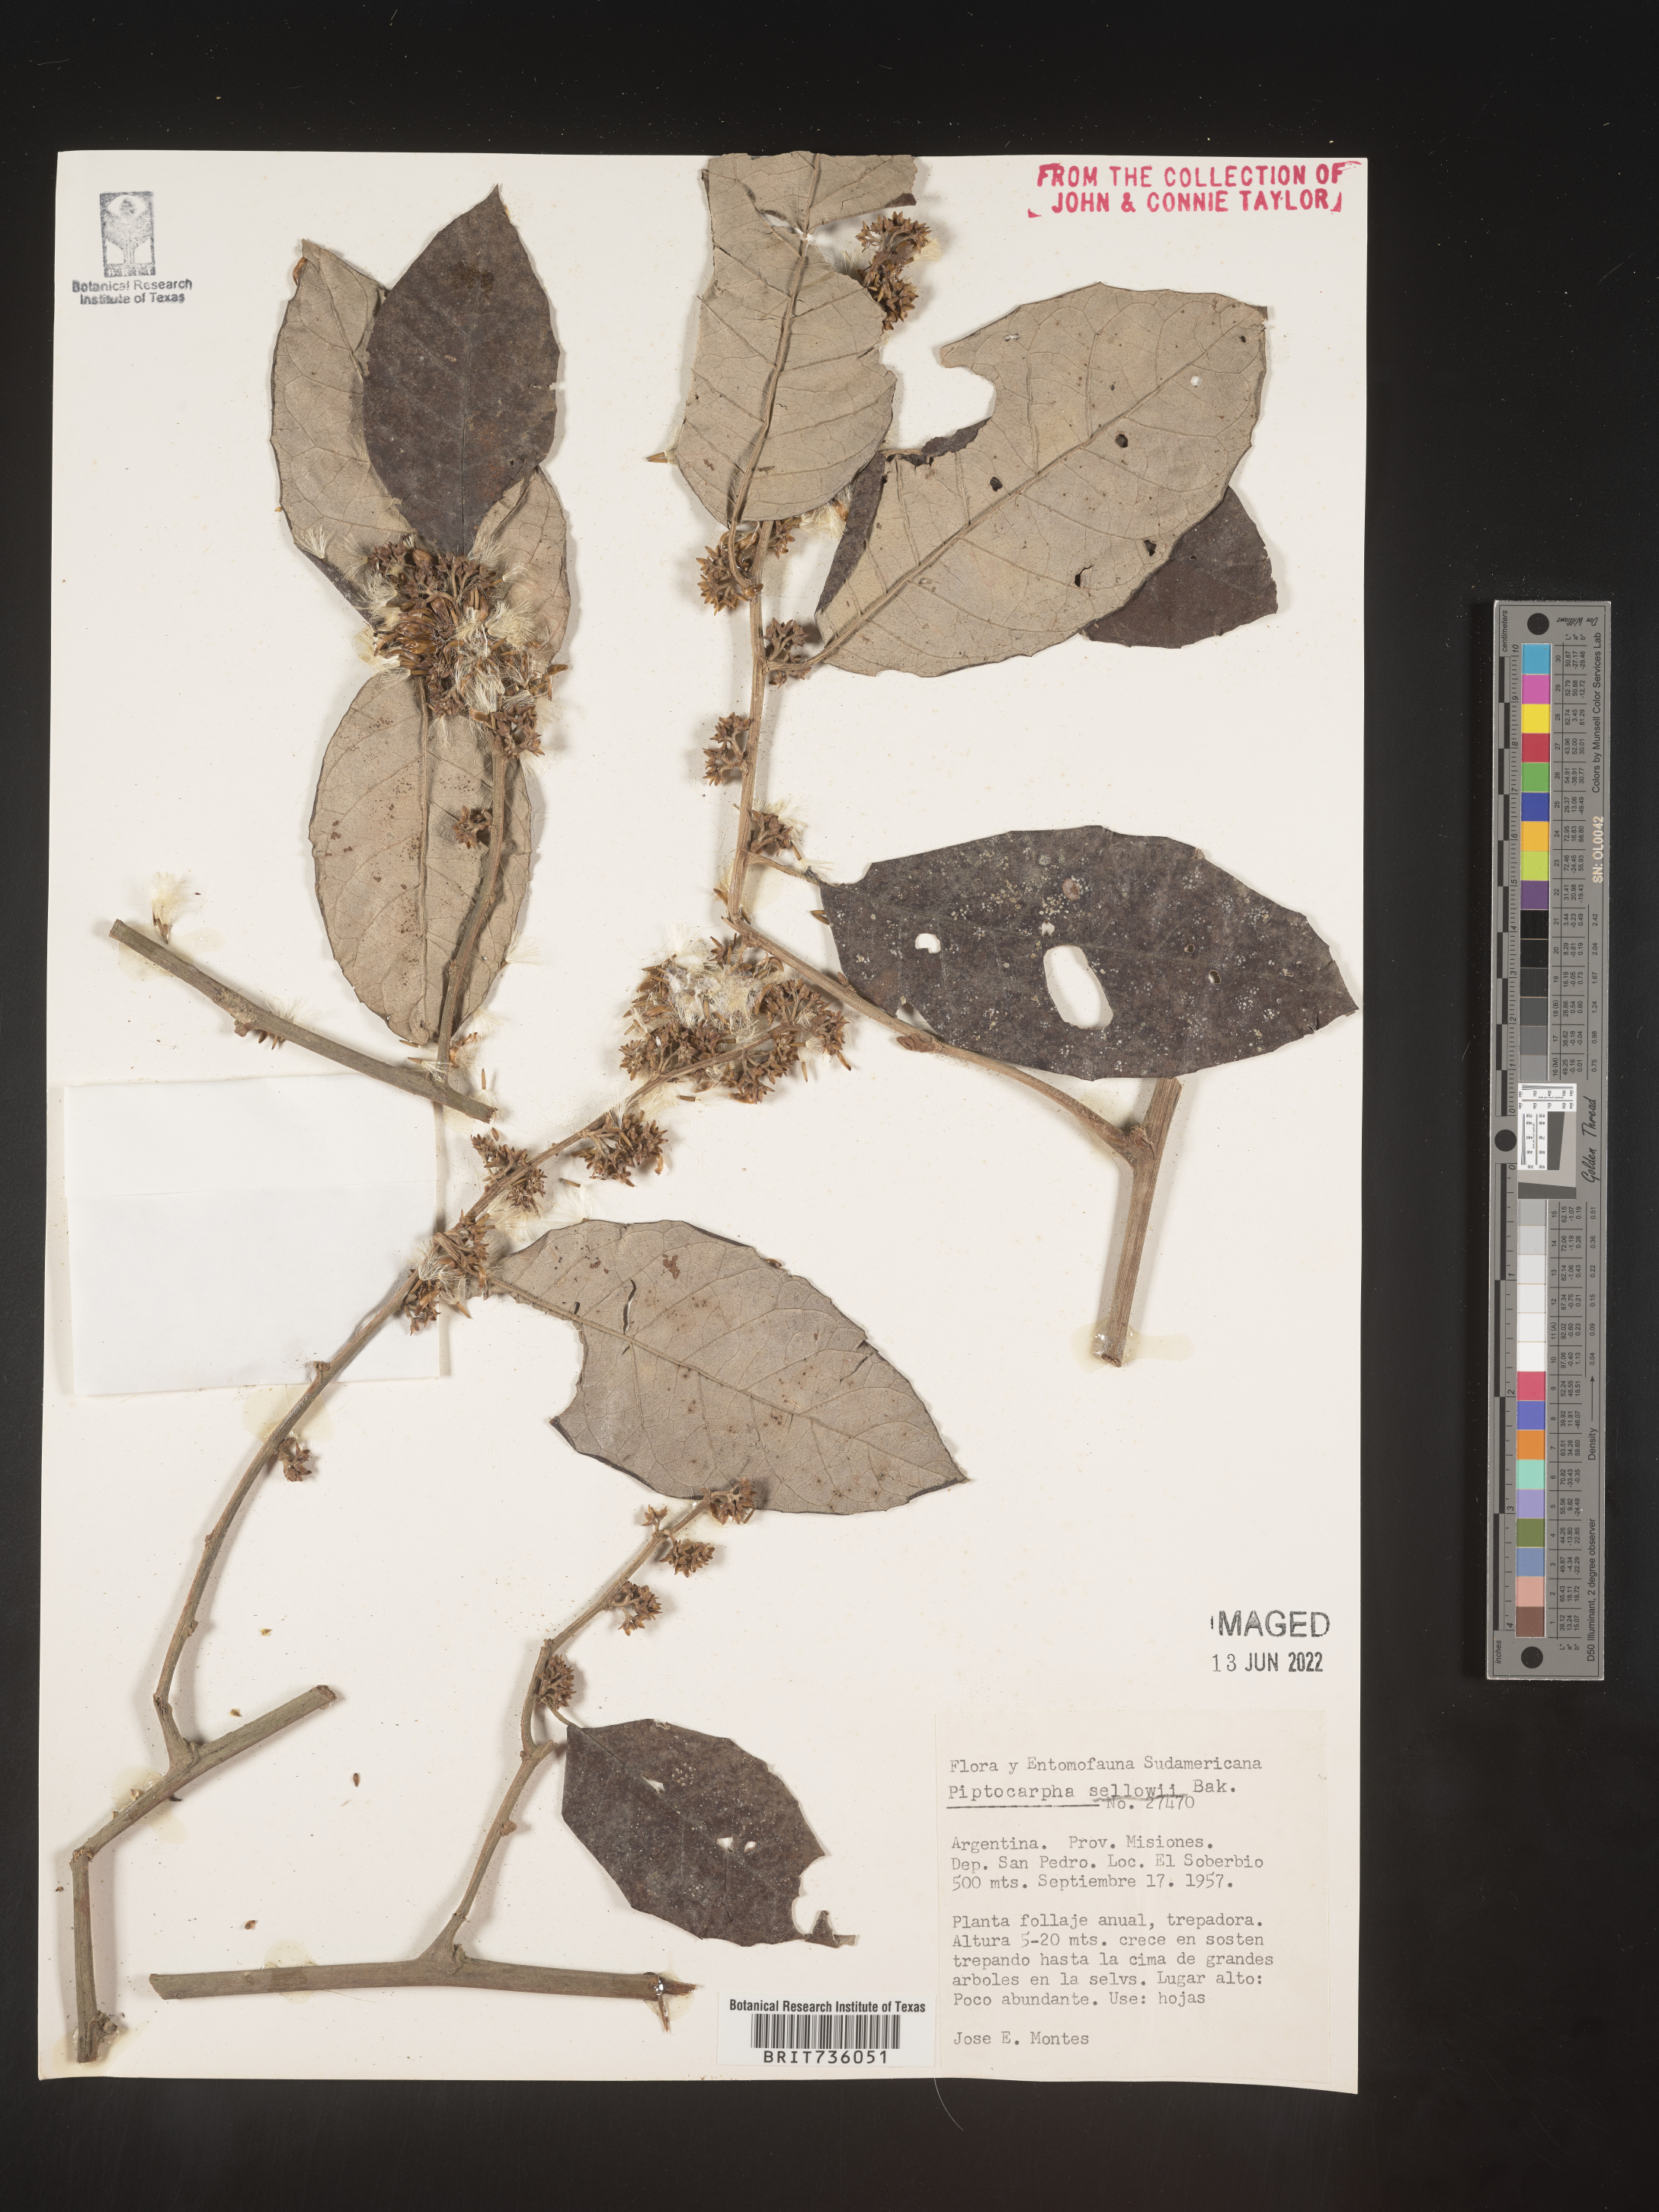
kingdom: Plantae
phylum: Tracheophyta
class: Magnoliopsida
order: Asterales
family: Asteraceae
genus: Piptocarpha
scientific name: Piptocarpha
